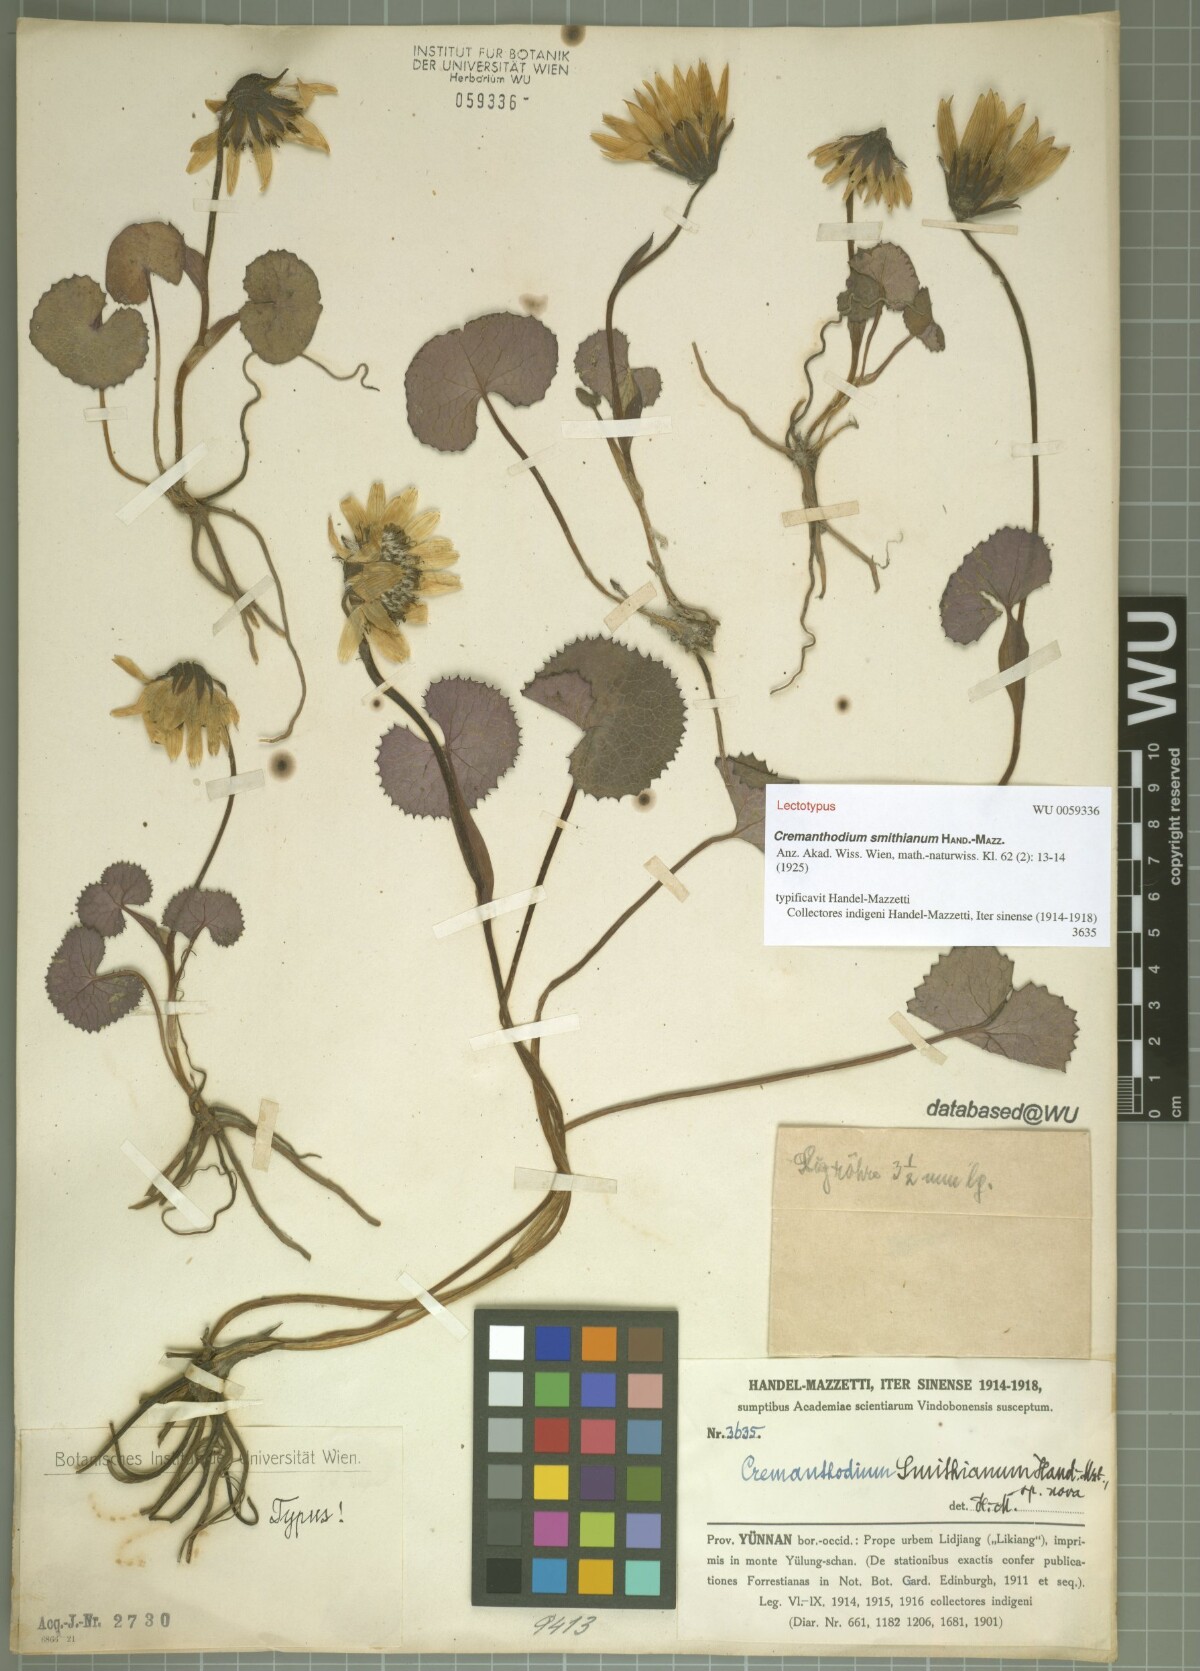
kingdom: Plantae
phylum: Tracheophyta
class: Magnoliopsida
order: Asterales
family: Asteraceae
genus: Cremanthodium
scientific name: Cremanthodium smithianum
